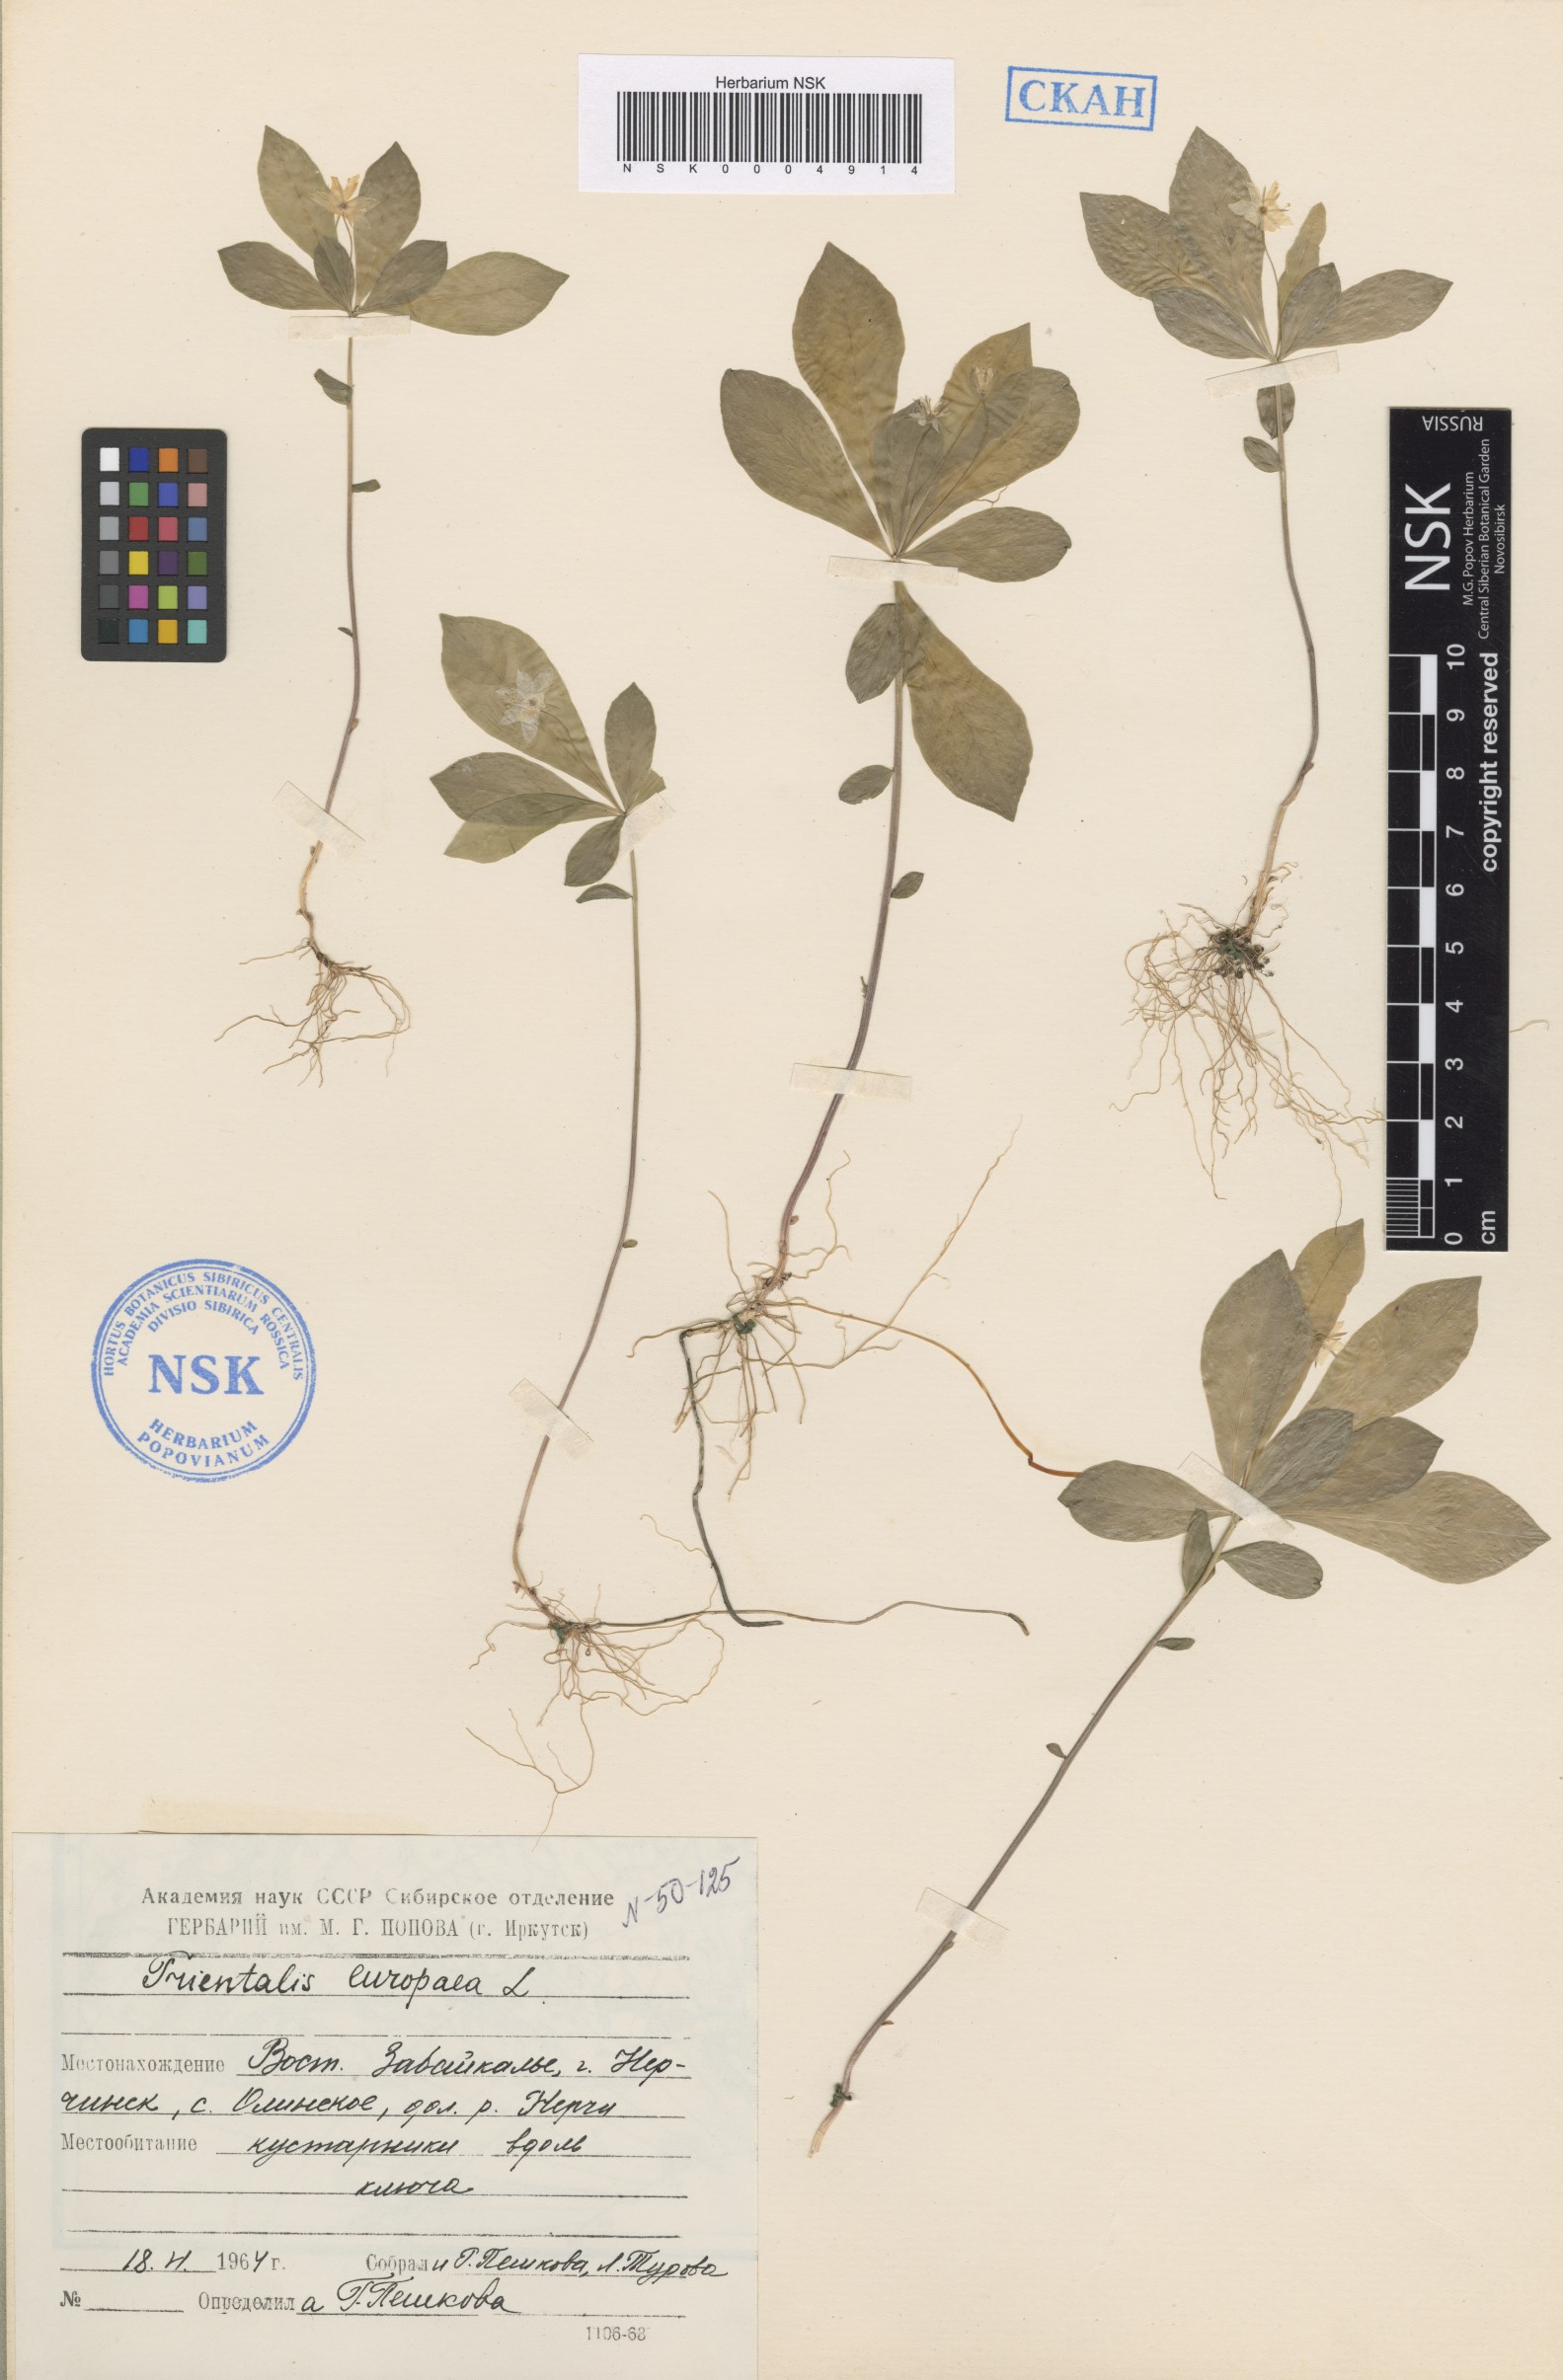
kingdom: Plantae
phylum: Tracheophyta
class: Magnoliopsida
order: Ericales
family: Primulaceae
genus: Lysimachia
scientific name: Lysimachia europaea
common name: Arctic starflower
